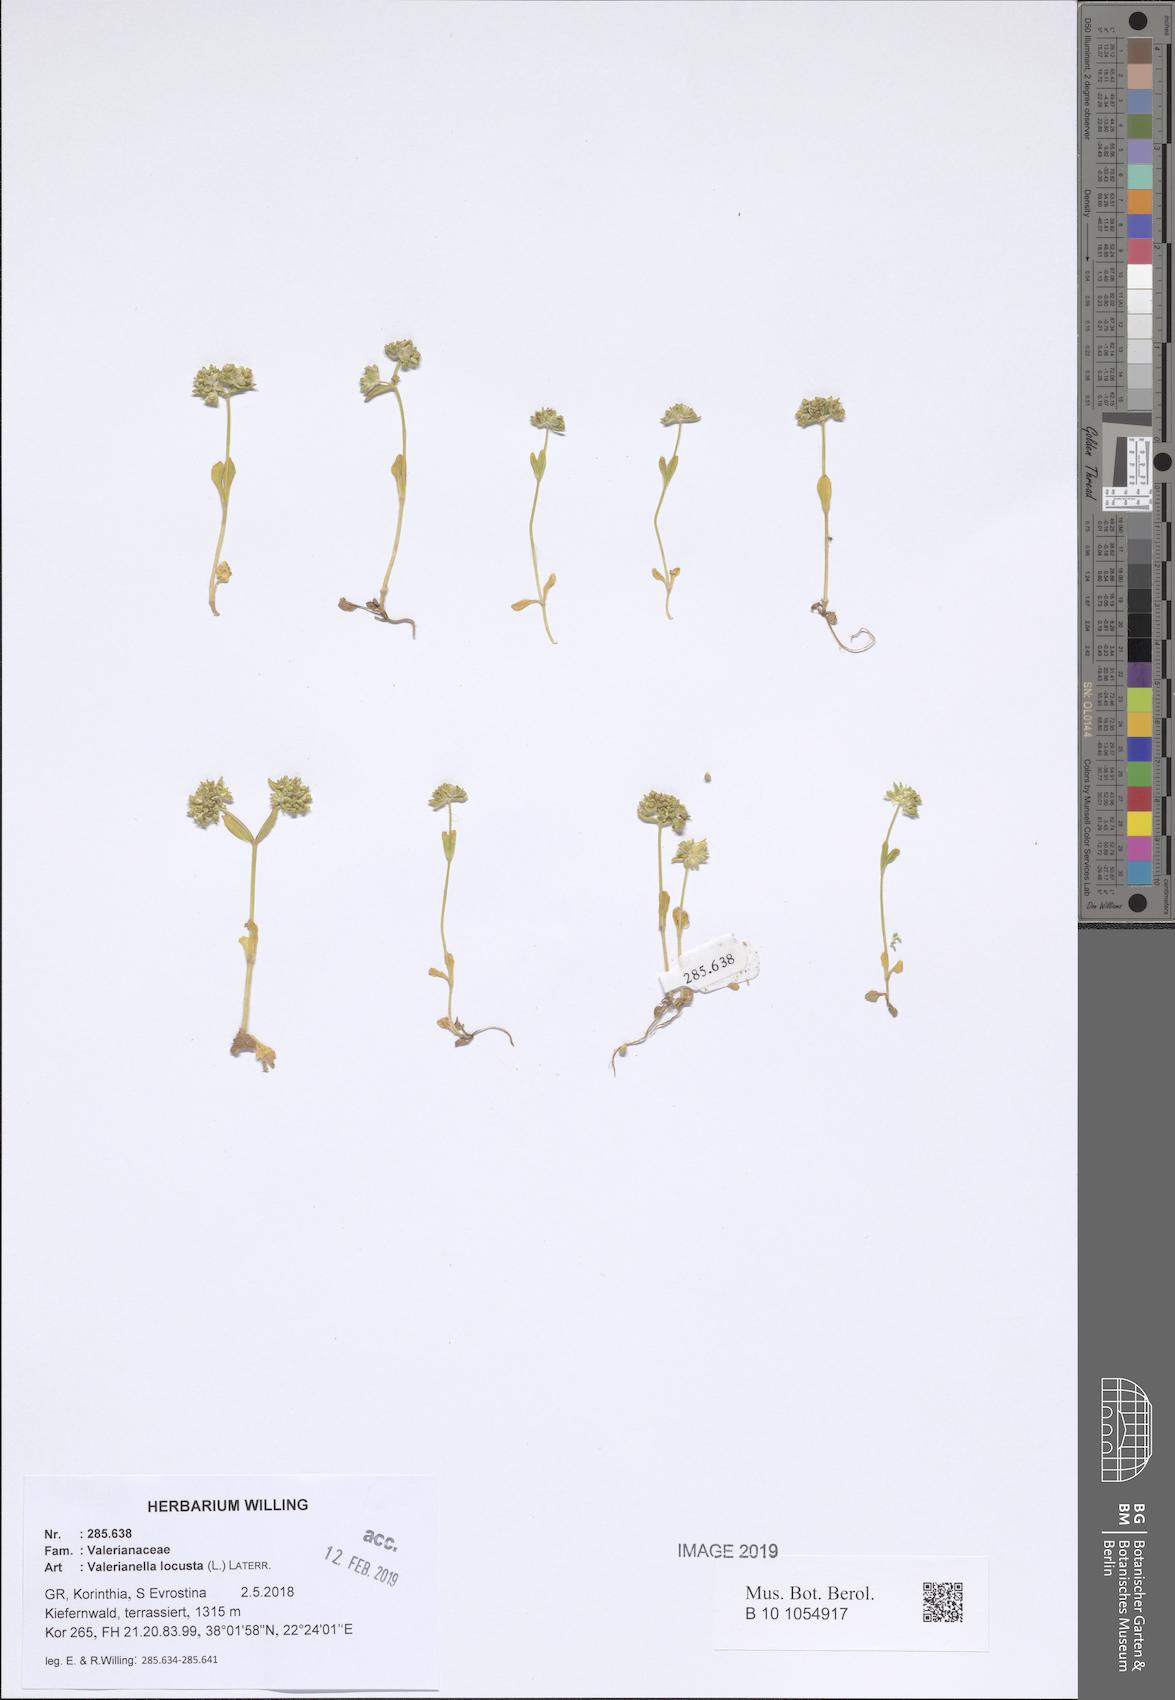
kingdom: Plantae
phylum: Tracheophyta
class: Magnoliopsida
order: Dipsacales
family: Caprifoliaceae
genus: Valerianella
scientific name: Valerianella locusta
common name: Common cornsalad
